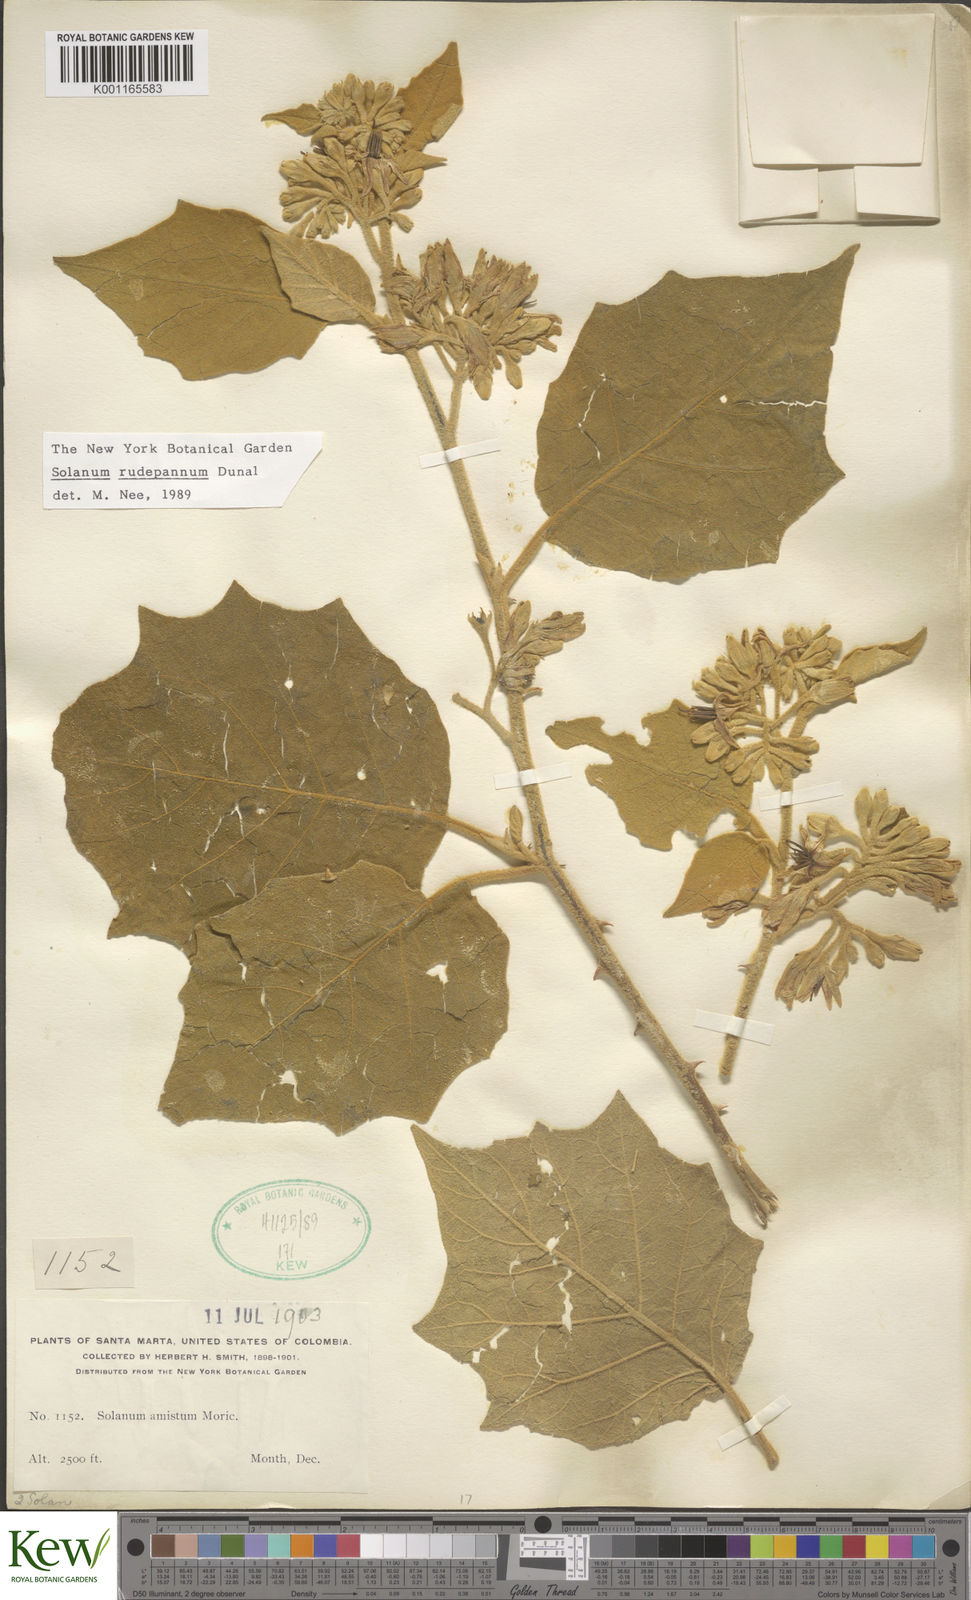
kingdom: Plantae
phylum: Tracheophyta
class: Magnoliopsida
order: Solanales
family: Solanaceae
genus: Solanum
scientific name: Solanum rude-pannum
